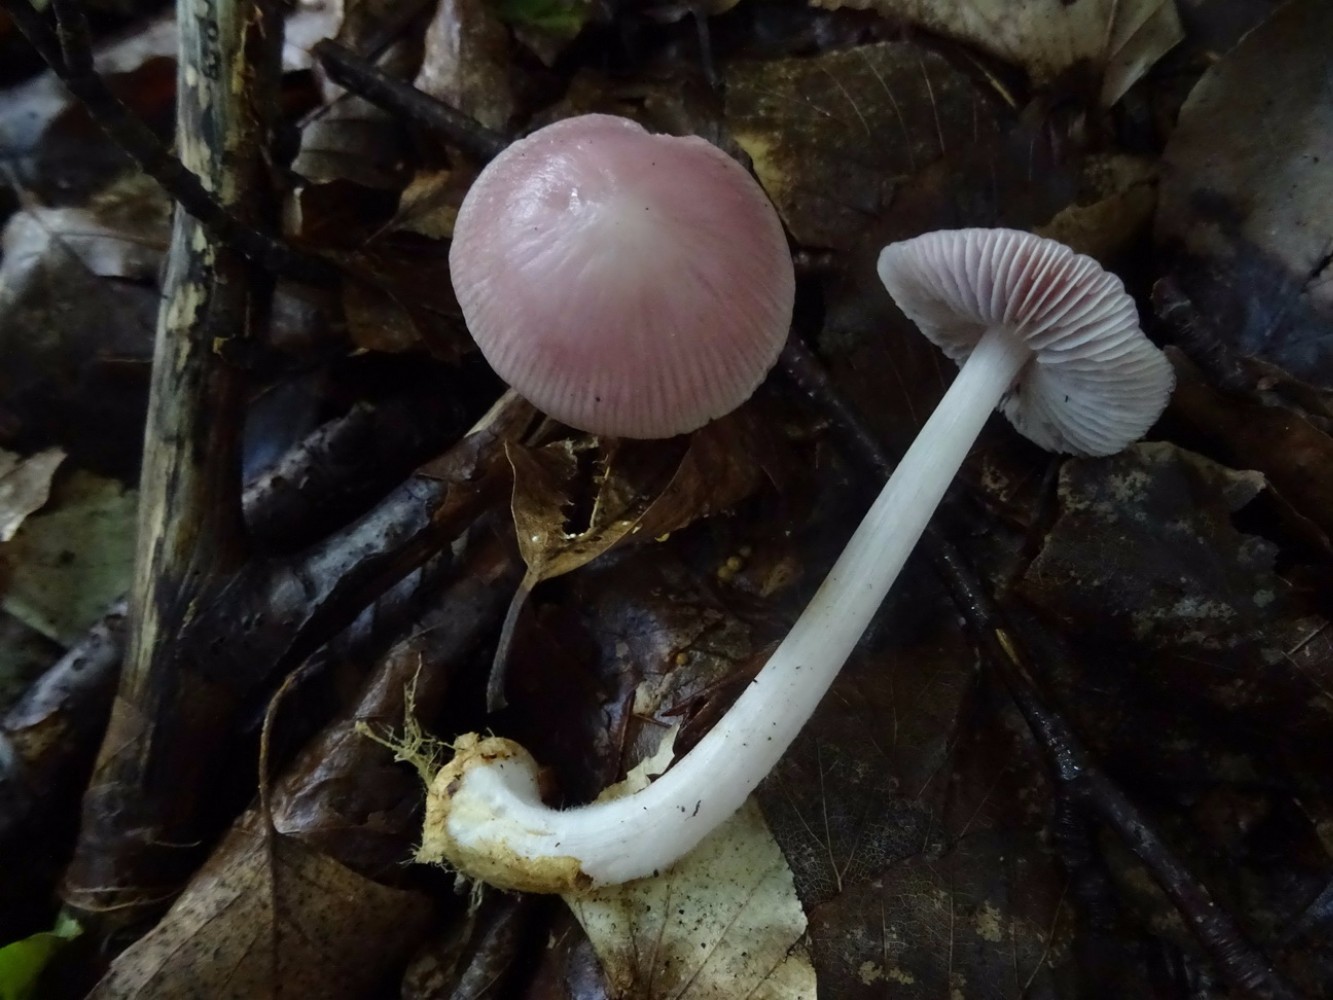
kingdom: Fungi
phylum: Basidiomycota
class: Agaricomycetes
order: Agaricales
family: Mycenaceae
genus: Mycena
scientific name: Mycena rosea
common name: rosa huesvamp
